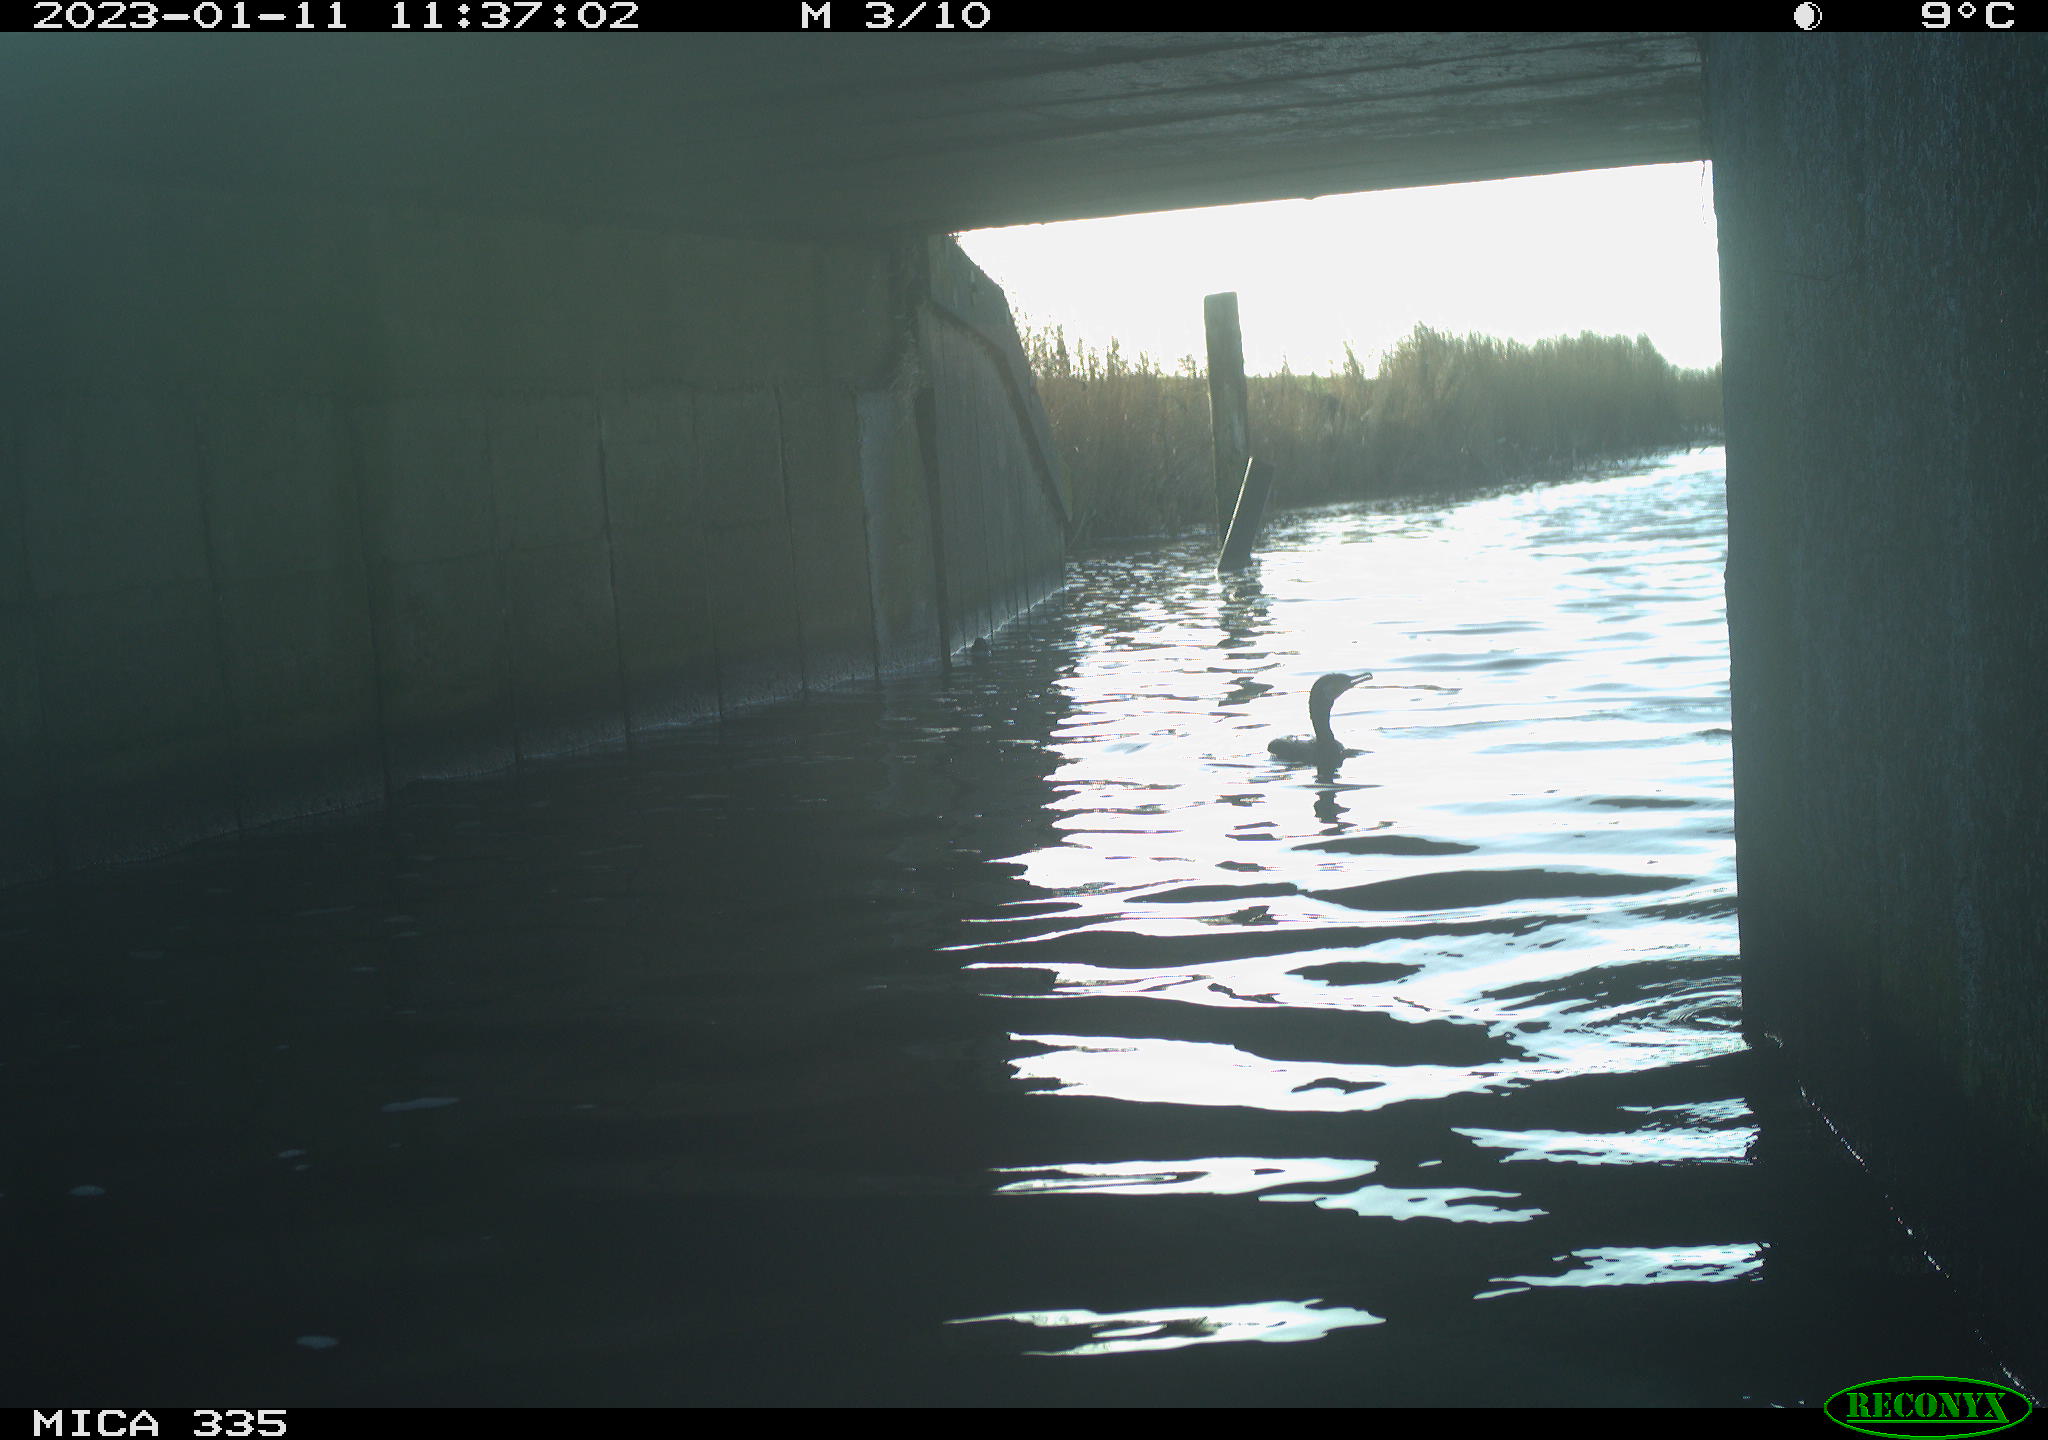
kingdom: Animalia
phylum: Chordata
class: Aves
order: Suliformes
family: Phalacrocoracidae
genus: Phalacrocorax
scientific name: Phalacrocorax carbo
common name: Great cormorant
